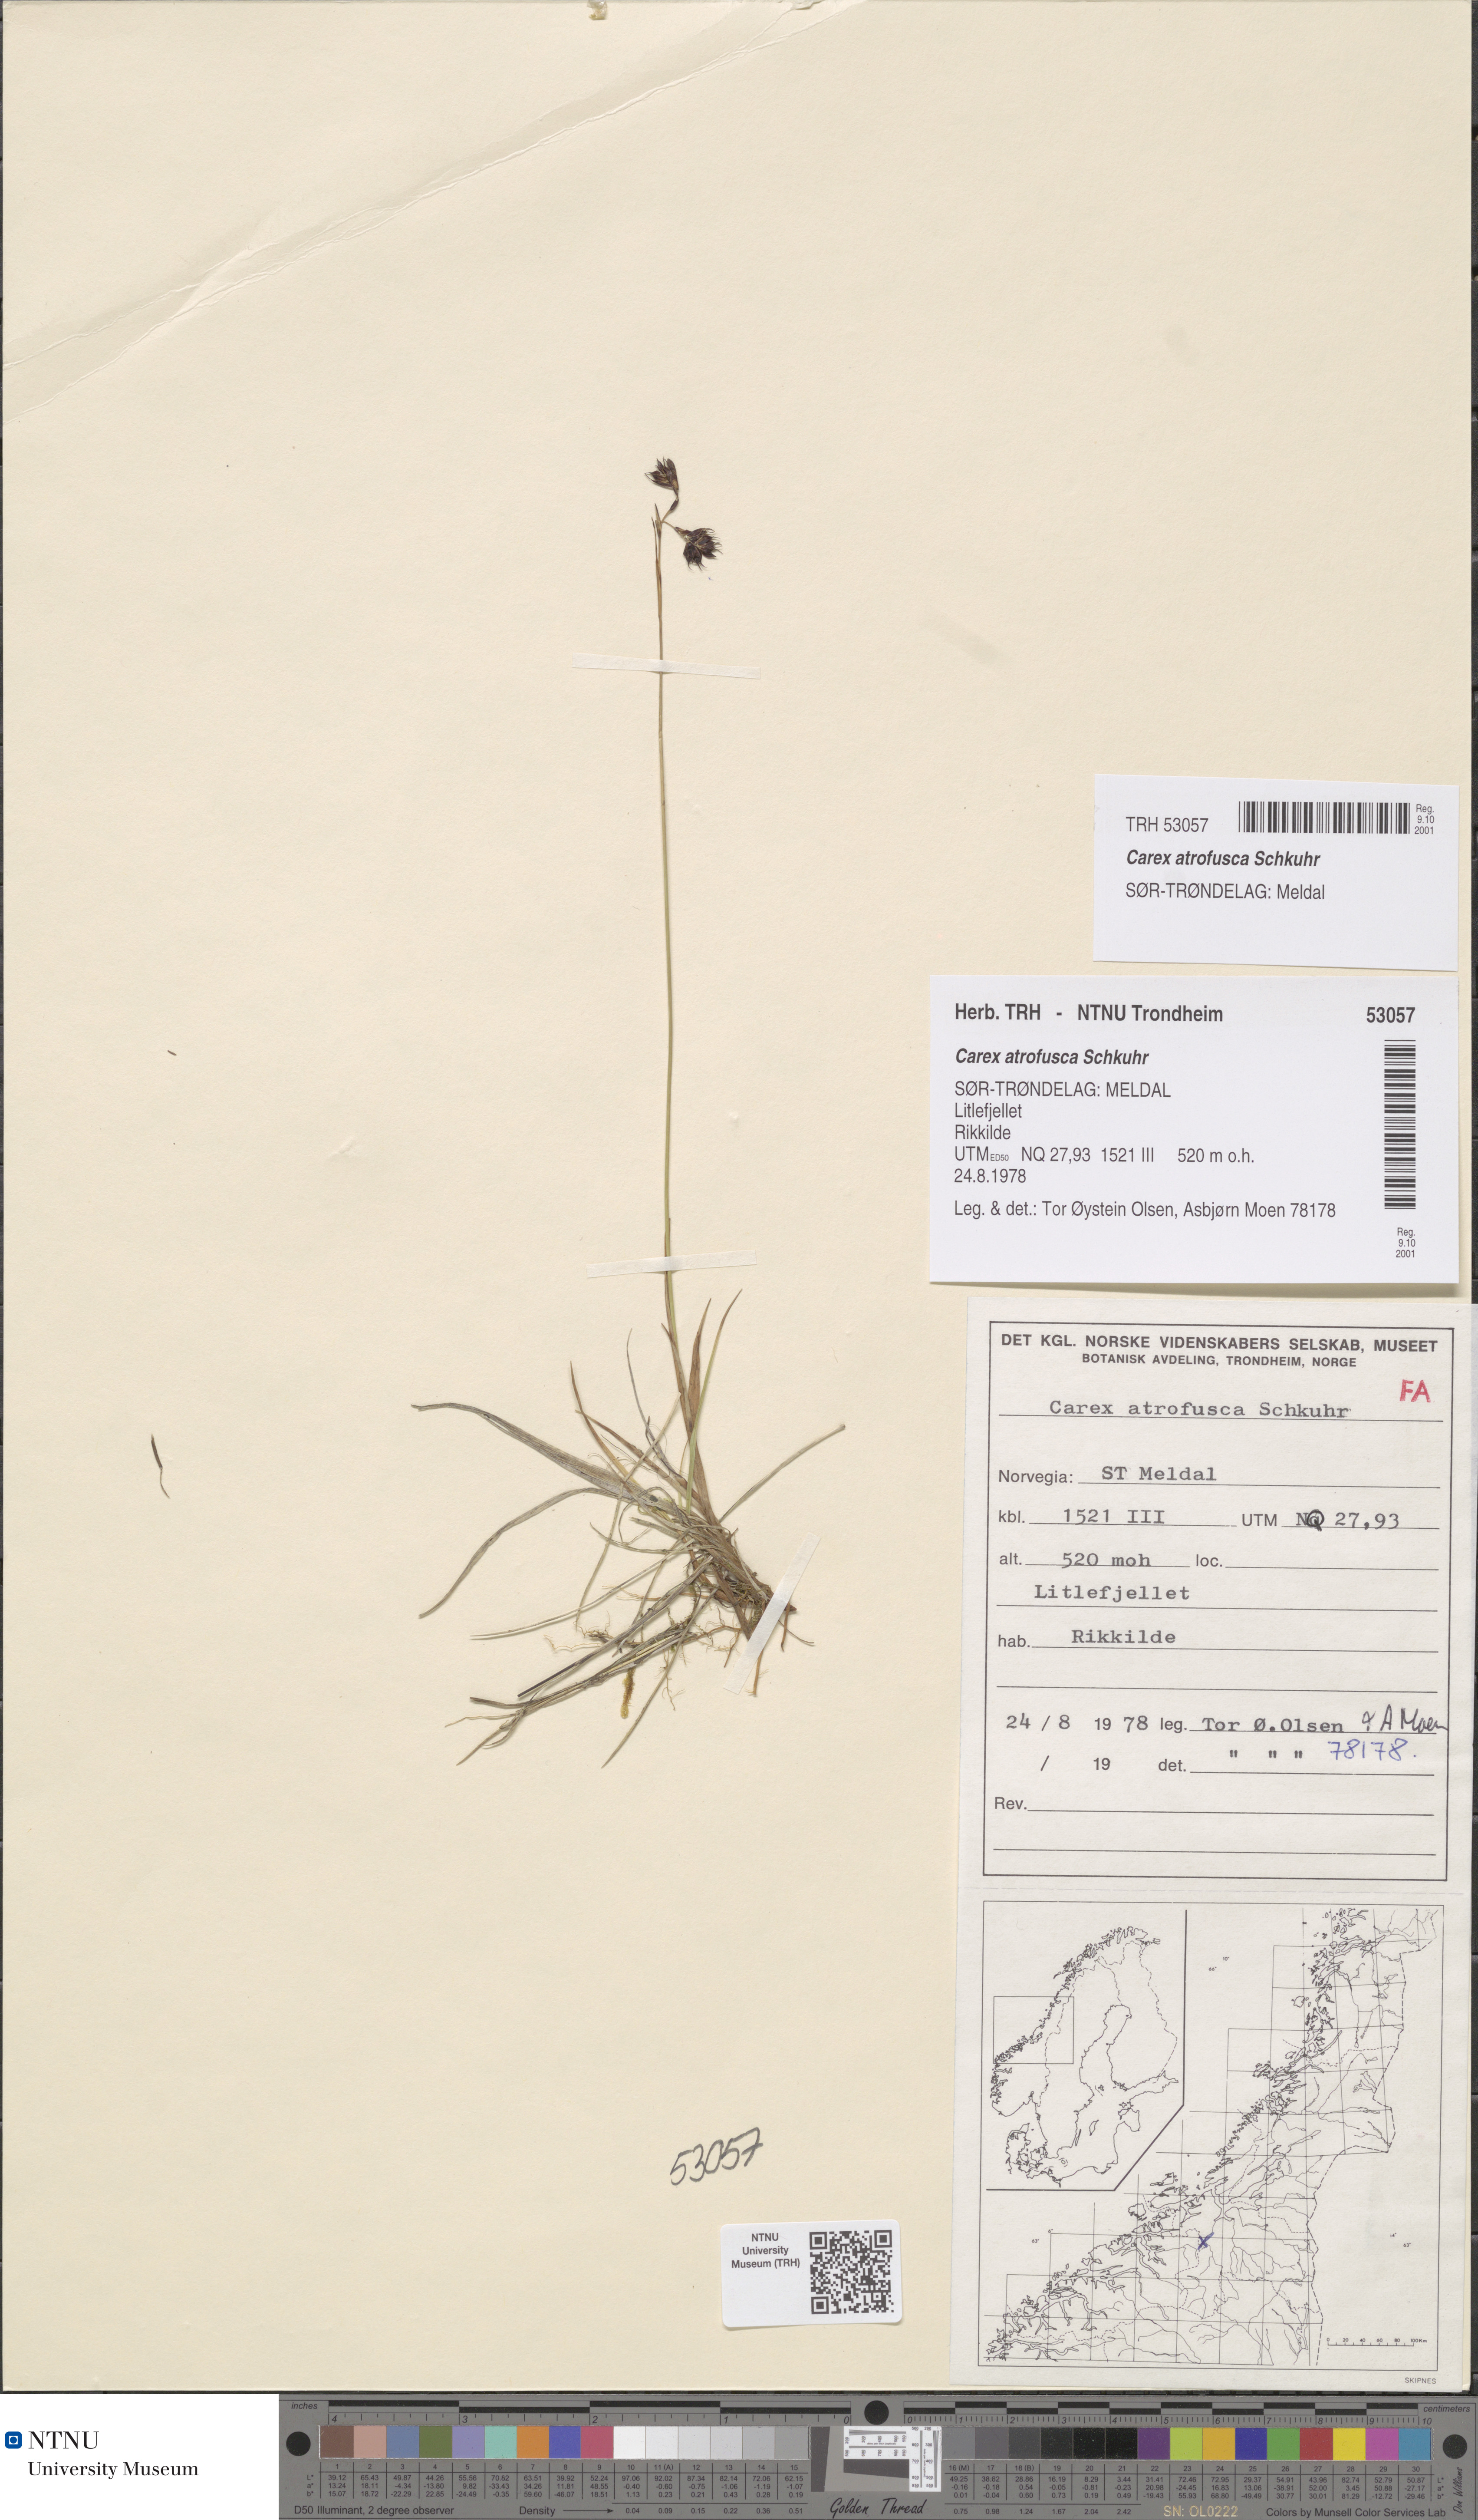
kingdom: Plantae
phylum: Tracheophyta
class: Liliopsida
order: Poales
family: Cyperaceae
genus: Carex
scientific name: Carex atrofusca
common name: Scorched alpine-sedge
